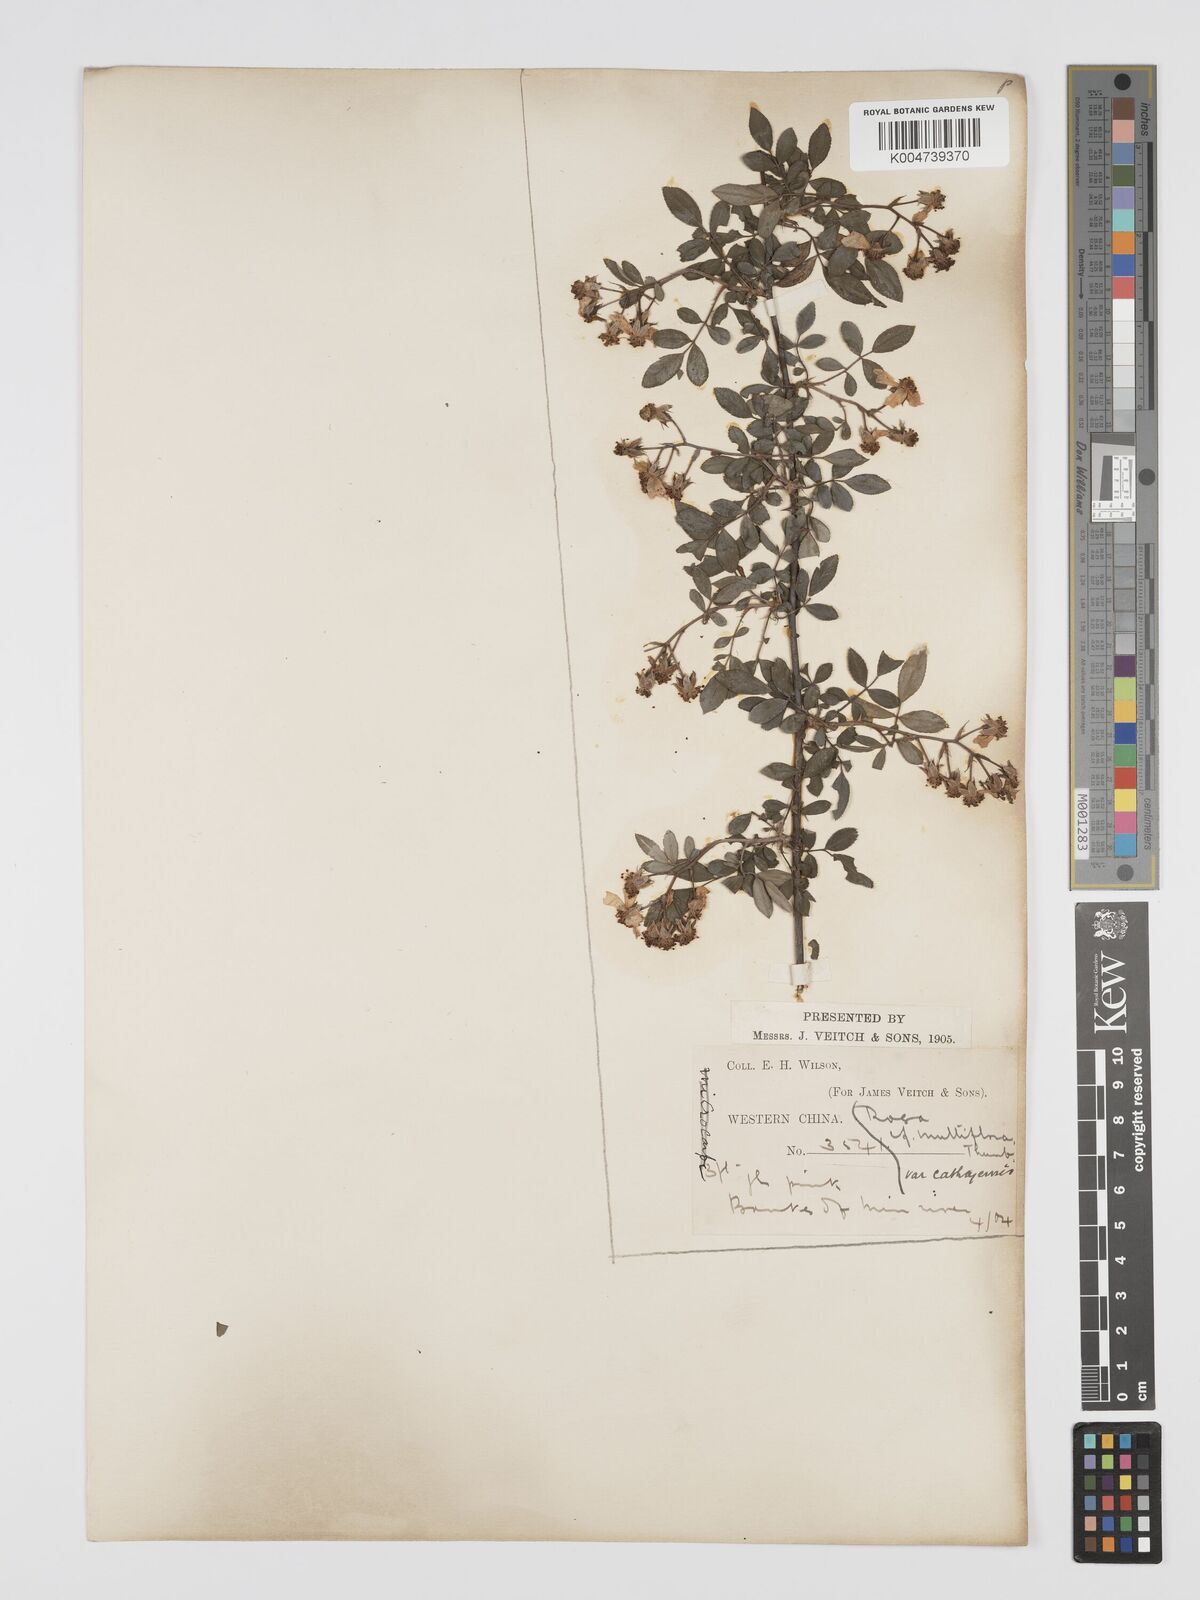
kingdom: Plantae
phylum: Tracheophyta
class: Magnoliopsida
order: Rosales
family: Rosaceae
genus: Rosa
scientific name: Rosa
